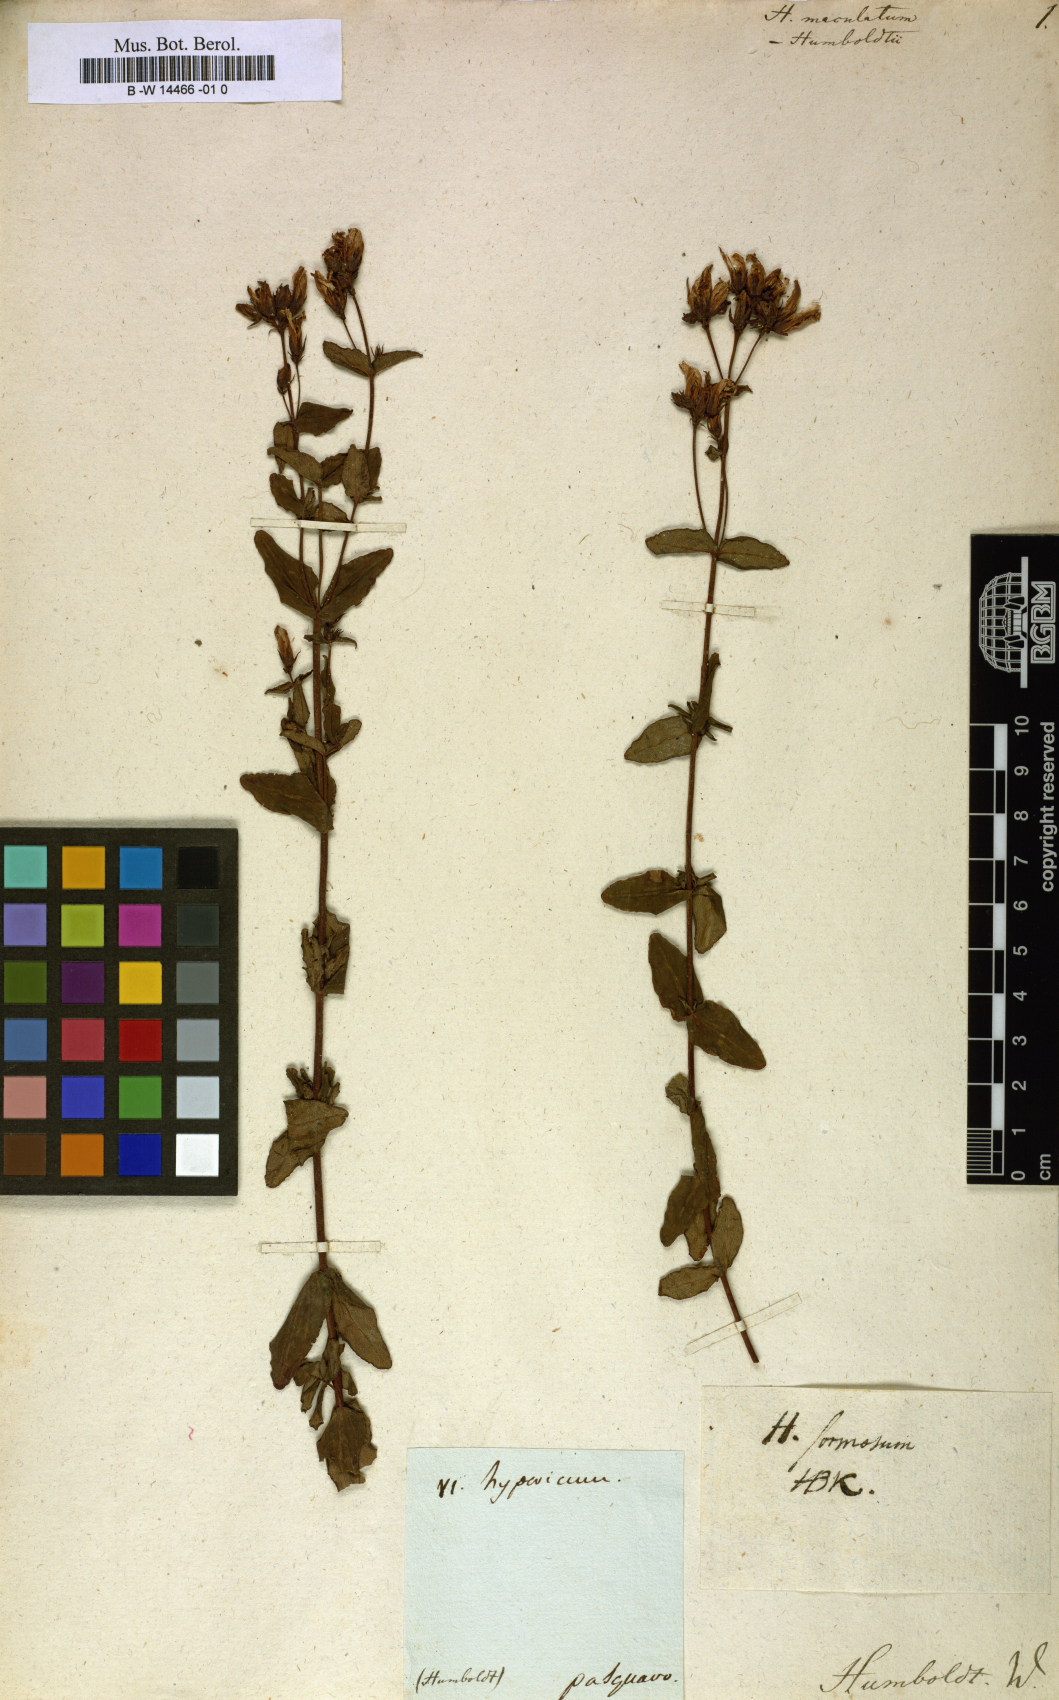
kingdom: Plantae
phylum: Tracheophyta
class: Magnoliopsida
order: Malpighiales
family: Hypericaceae
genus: Hypericum
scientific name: Hypericum formosissimum
